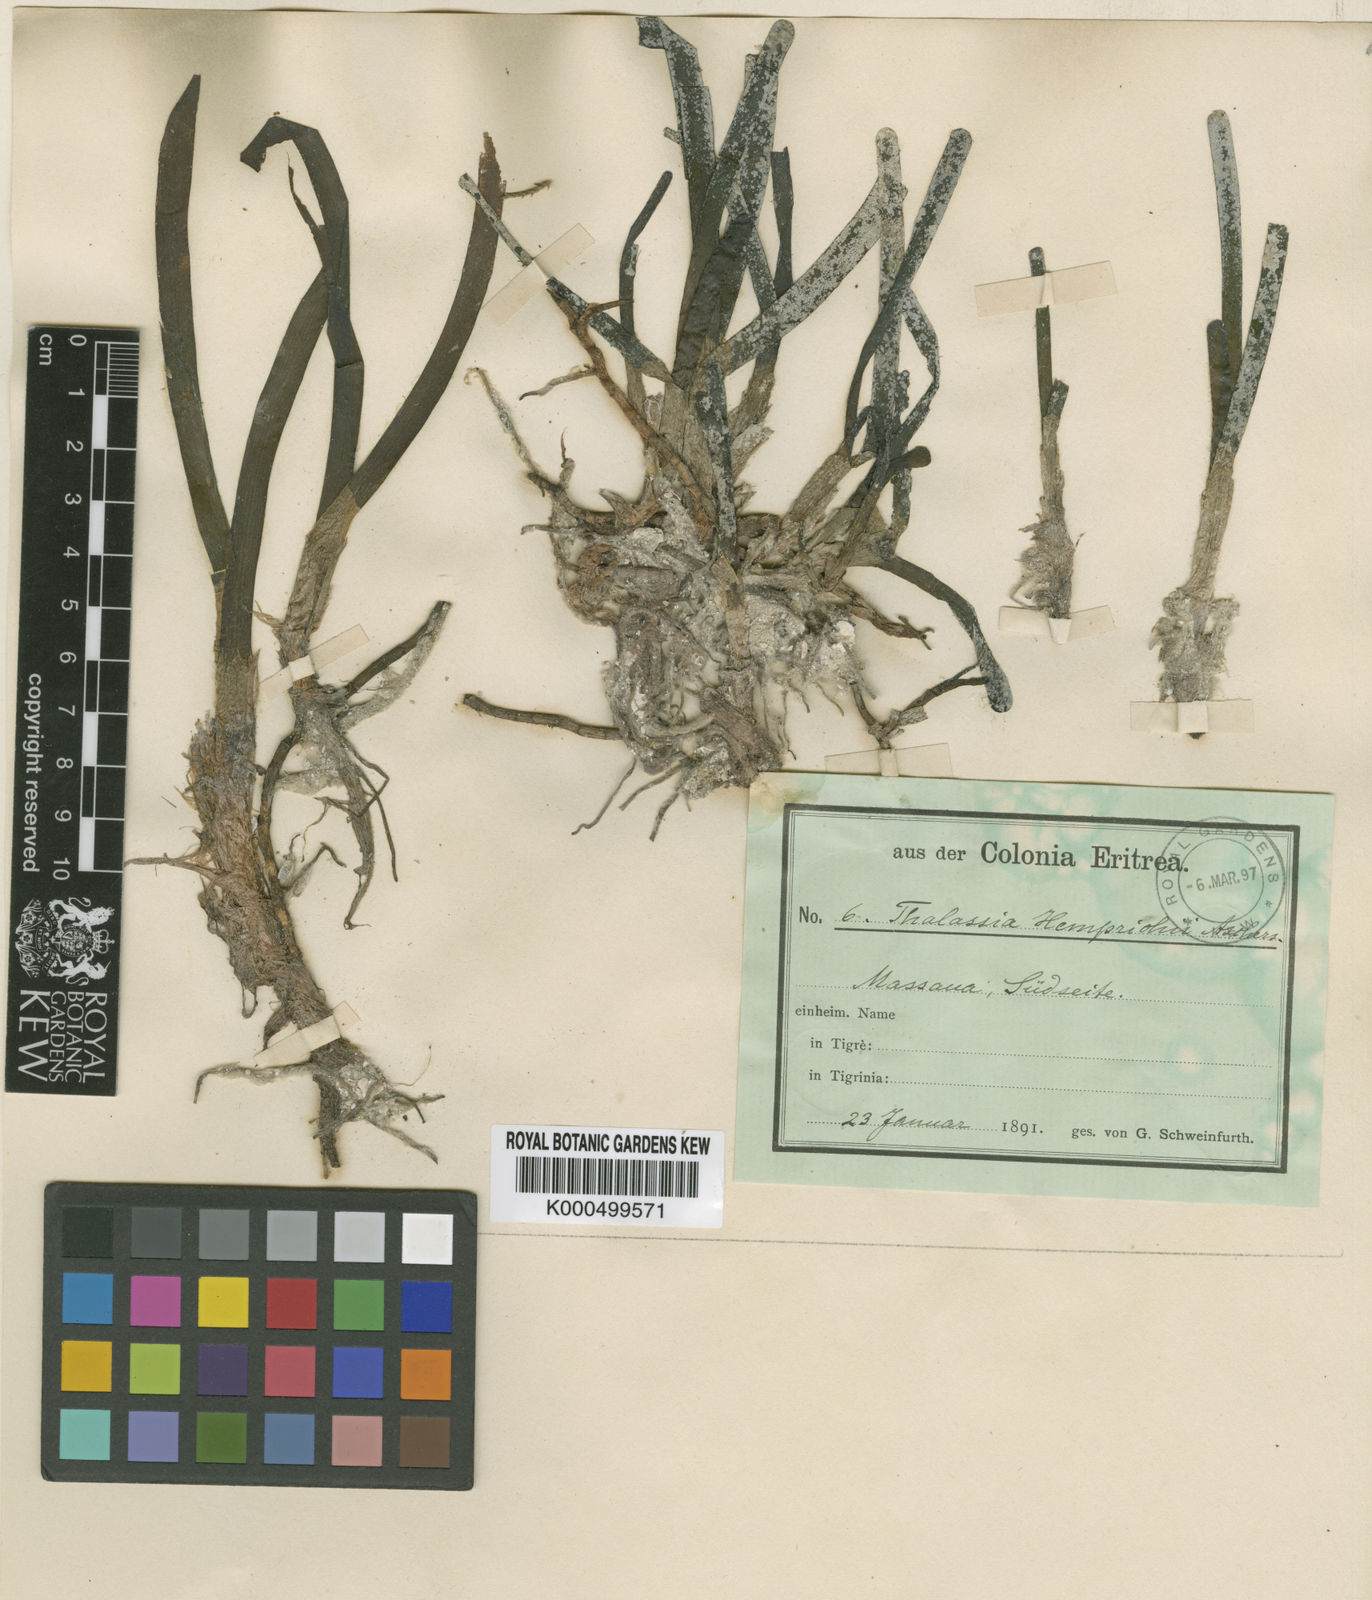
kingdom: Plantae
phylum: Tracheophyta
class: Liliopsida
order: Alismatales
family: Hydrocharitaceae
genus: Thalassia
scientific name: Thalassia hemprichii
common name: Species code: th
